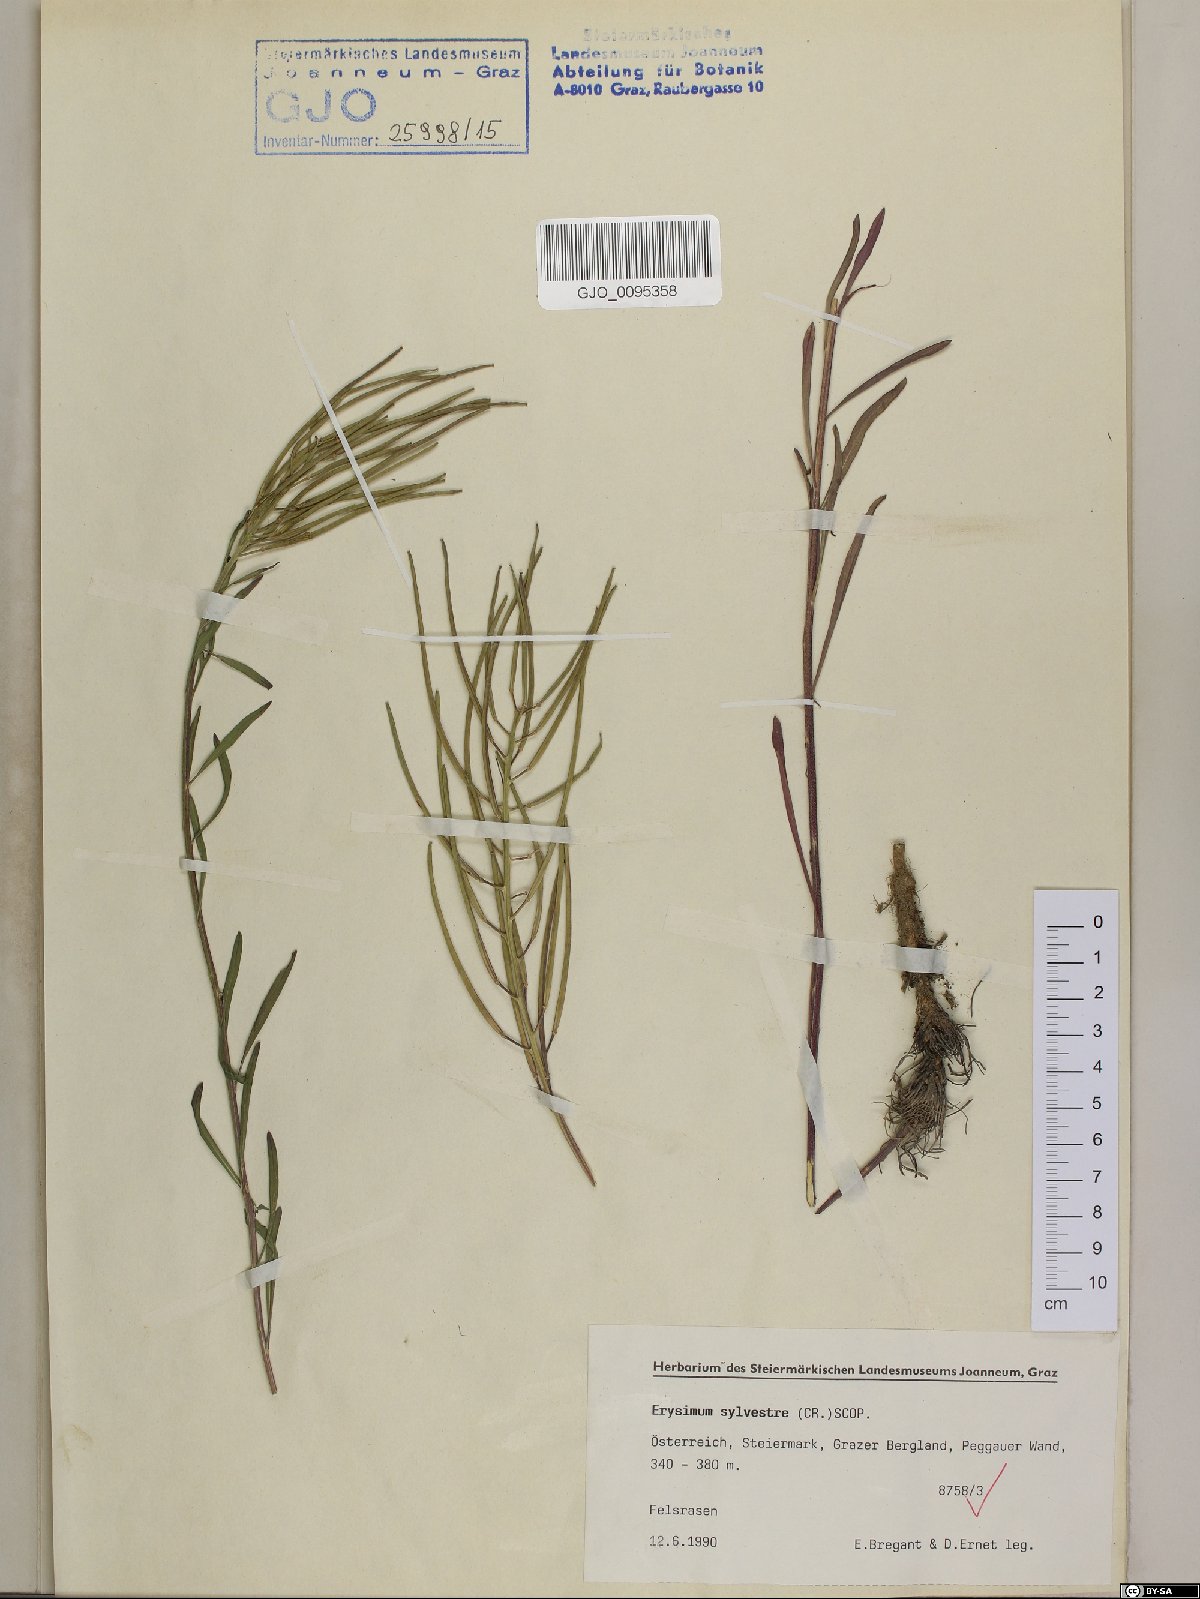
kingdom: Plantae
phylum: Tracheophyta
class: Magnoliopsida
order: Brassicales
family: Brassicaceae
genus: Erysimum
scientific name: Erysimum sylvestre
